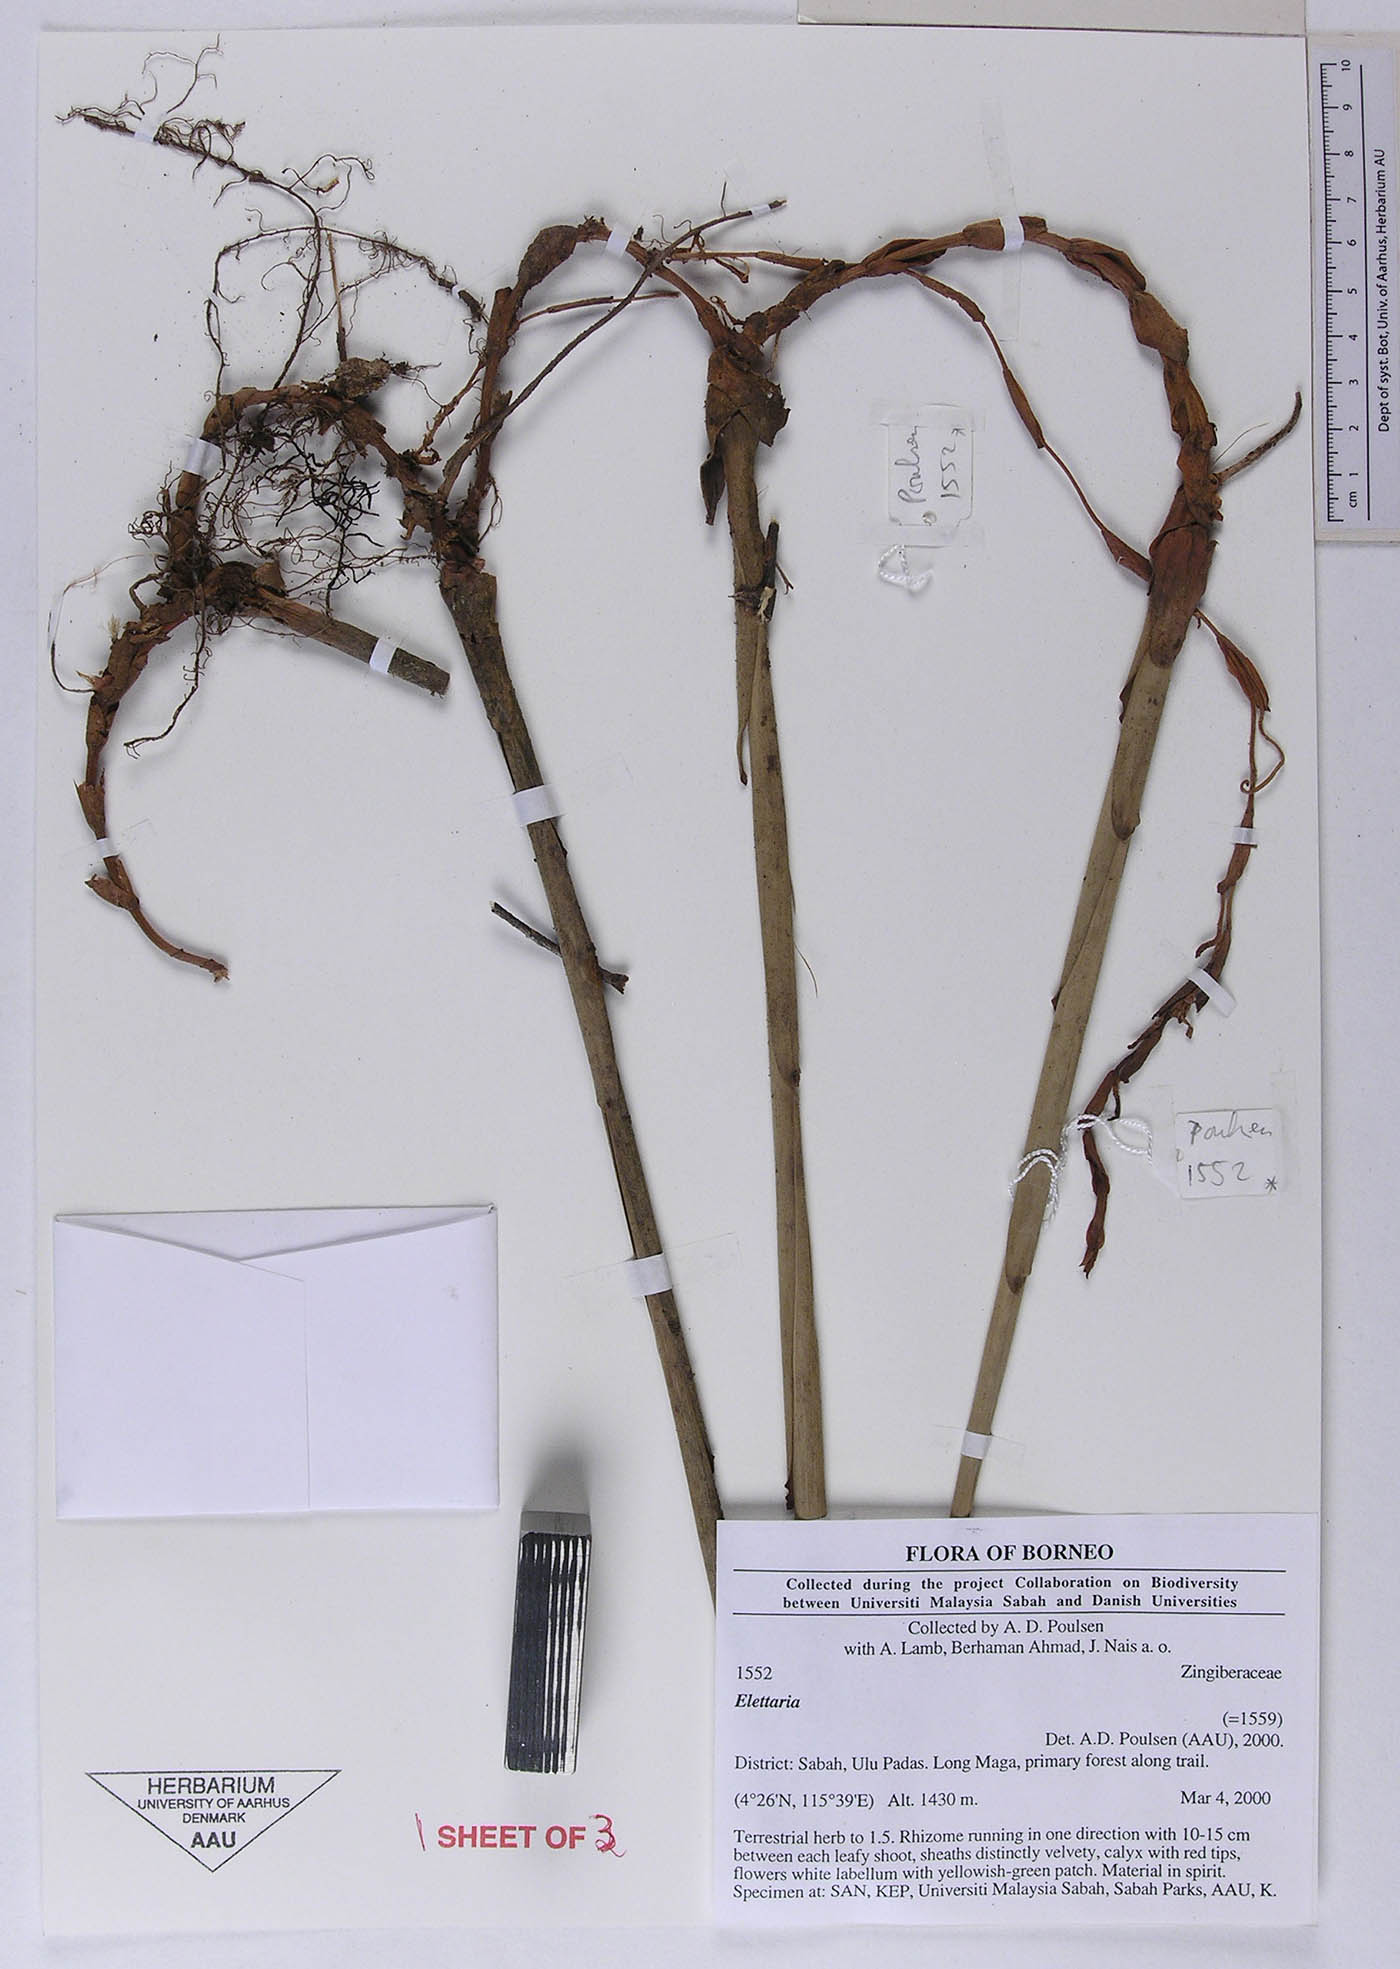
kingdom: Plantae
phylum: Tracheophyta
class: Liliopsida
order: Zingiberales
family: Zingiberaceae
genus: Sulettaria
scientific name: Sulettaria
